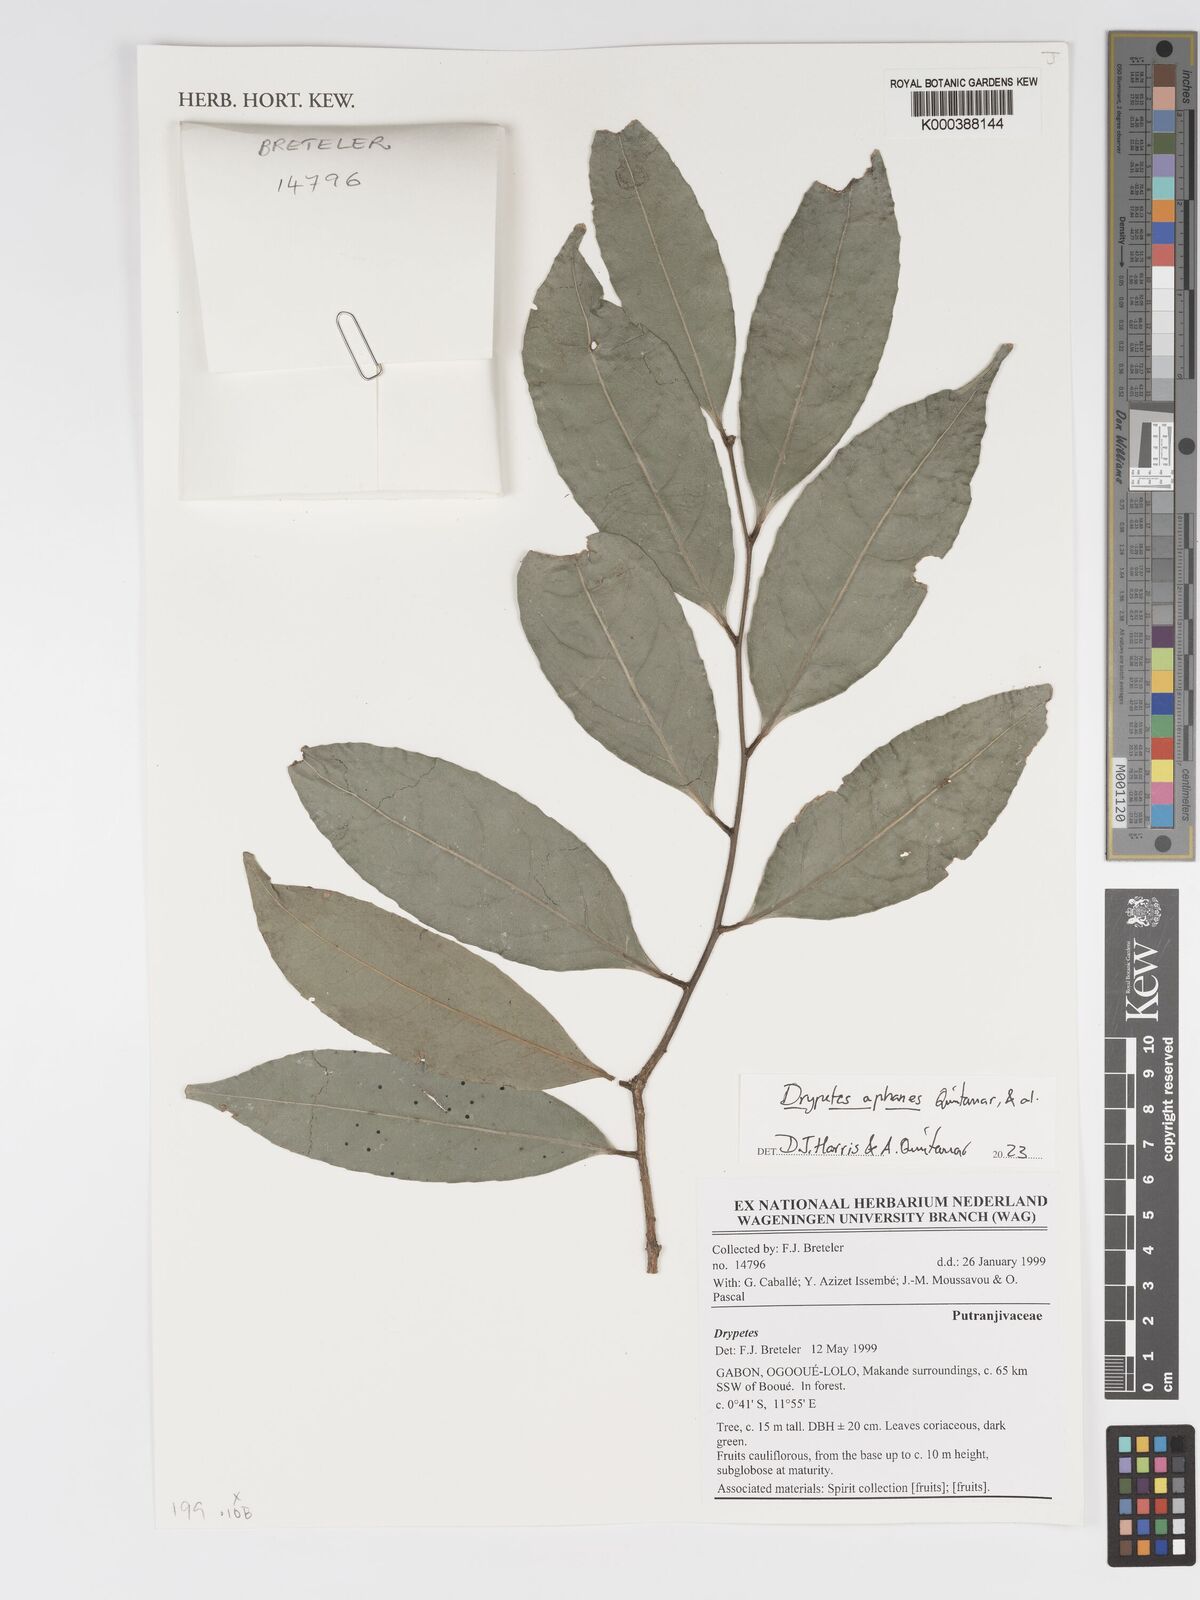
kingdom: Plantae
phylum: Tracheophyta
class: Magnoliopsida
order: Malpighiales
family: Putranjivaceae
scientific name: Putranjivaceae
